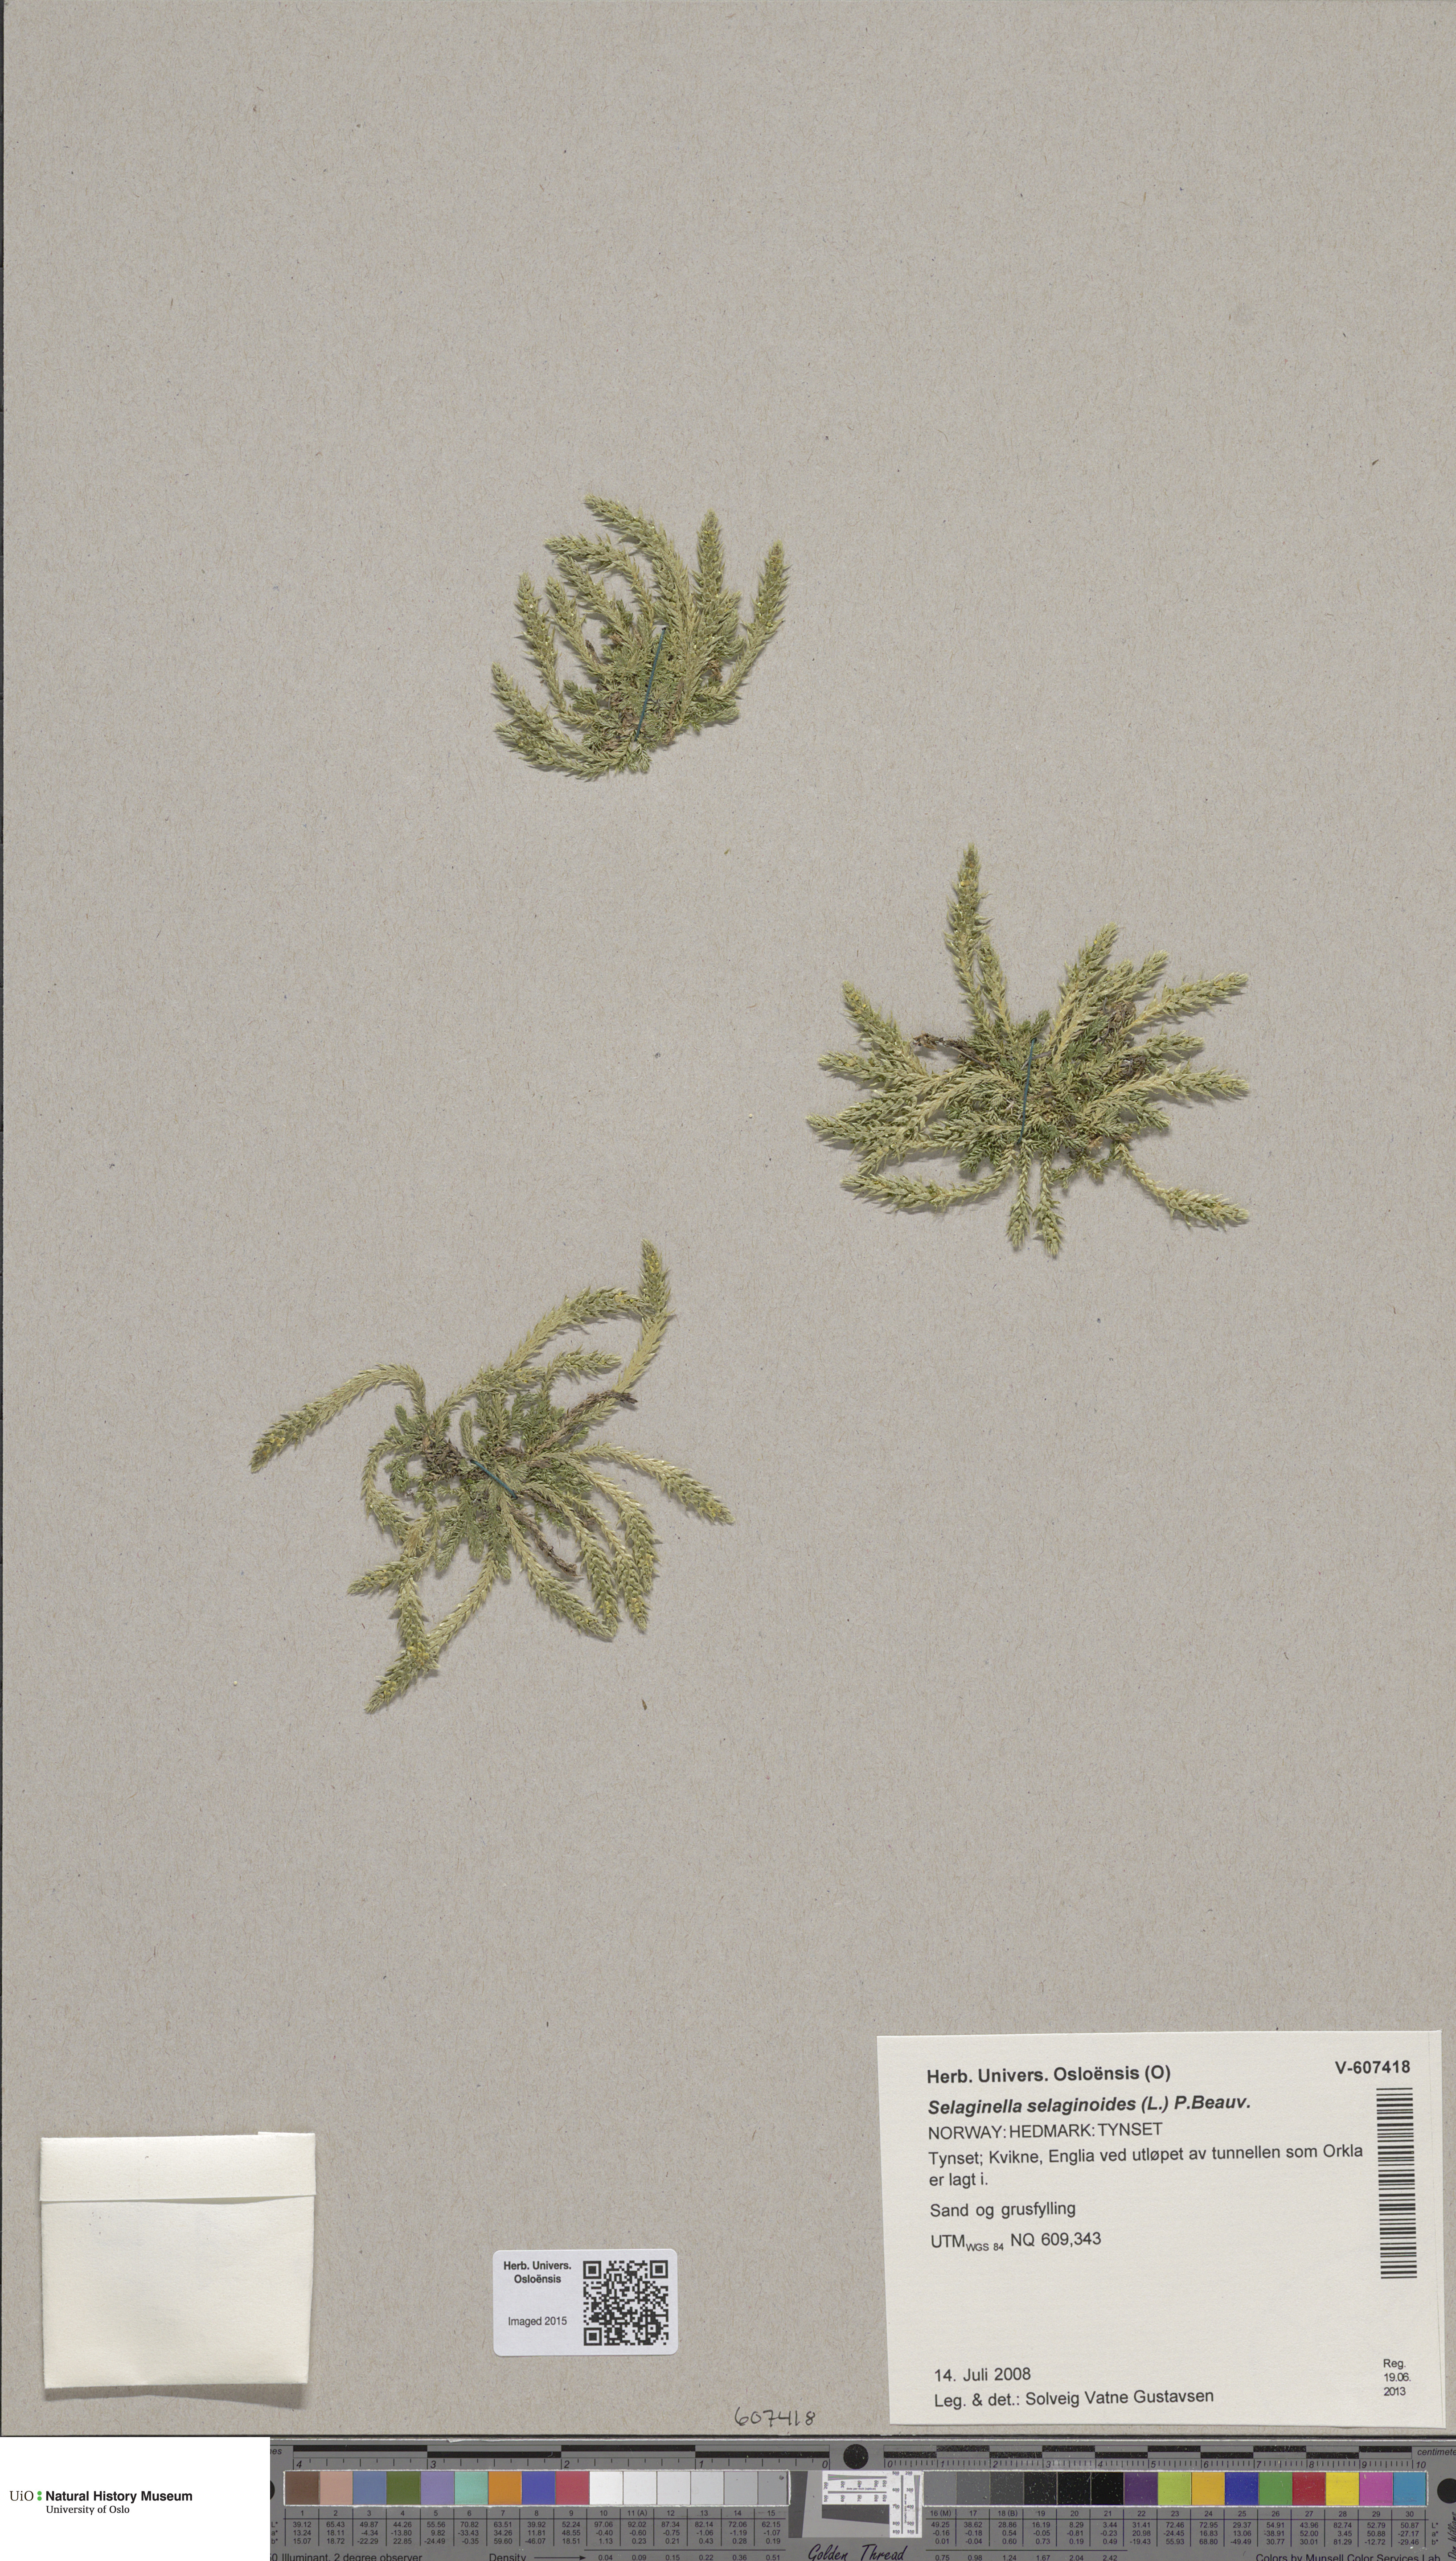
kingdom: Plantae
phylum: Tracheophyta
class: Lycopodiopsida
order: Selaginellales
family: Selaginellaceae
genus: Selaginella
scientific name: Selaginella selaginoides
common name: Prickly mountain-moss
